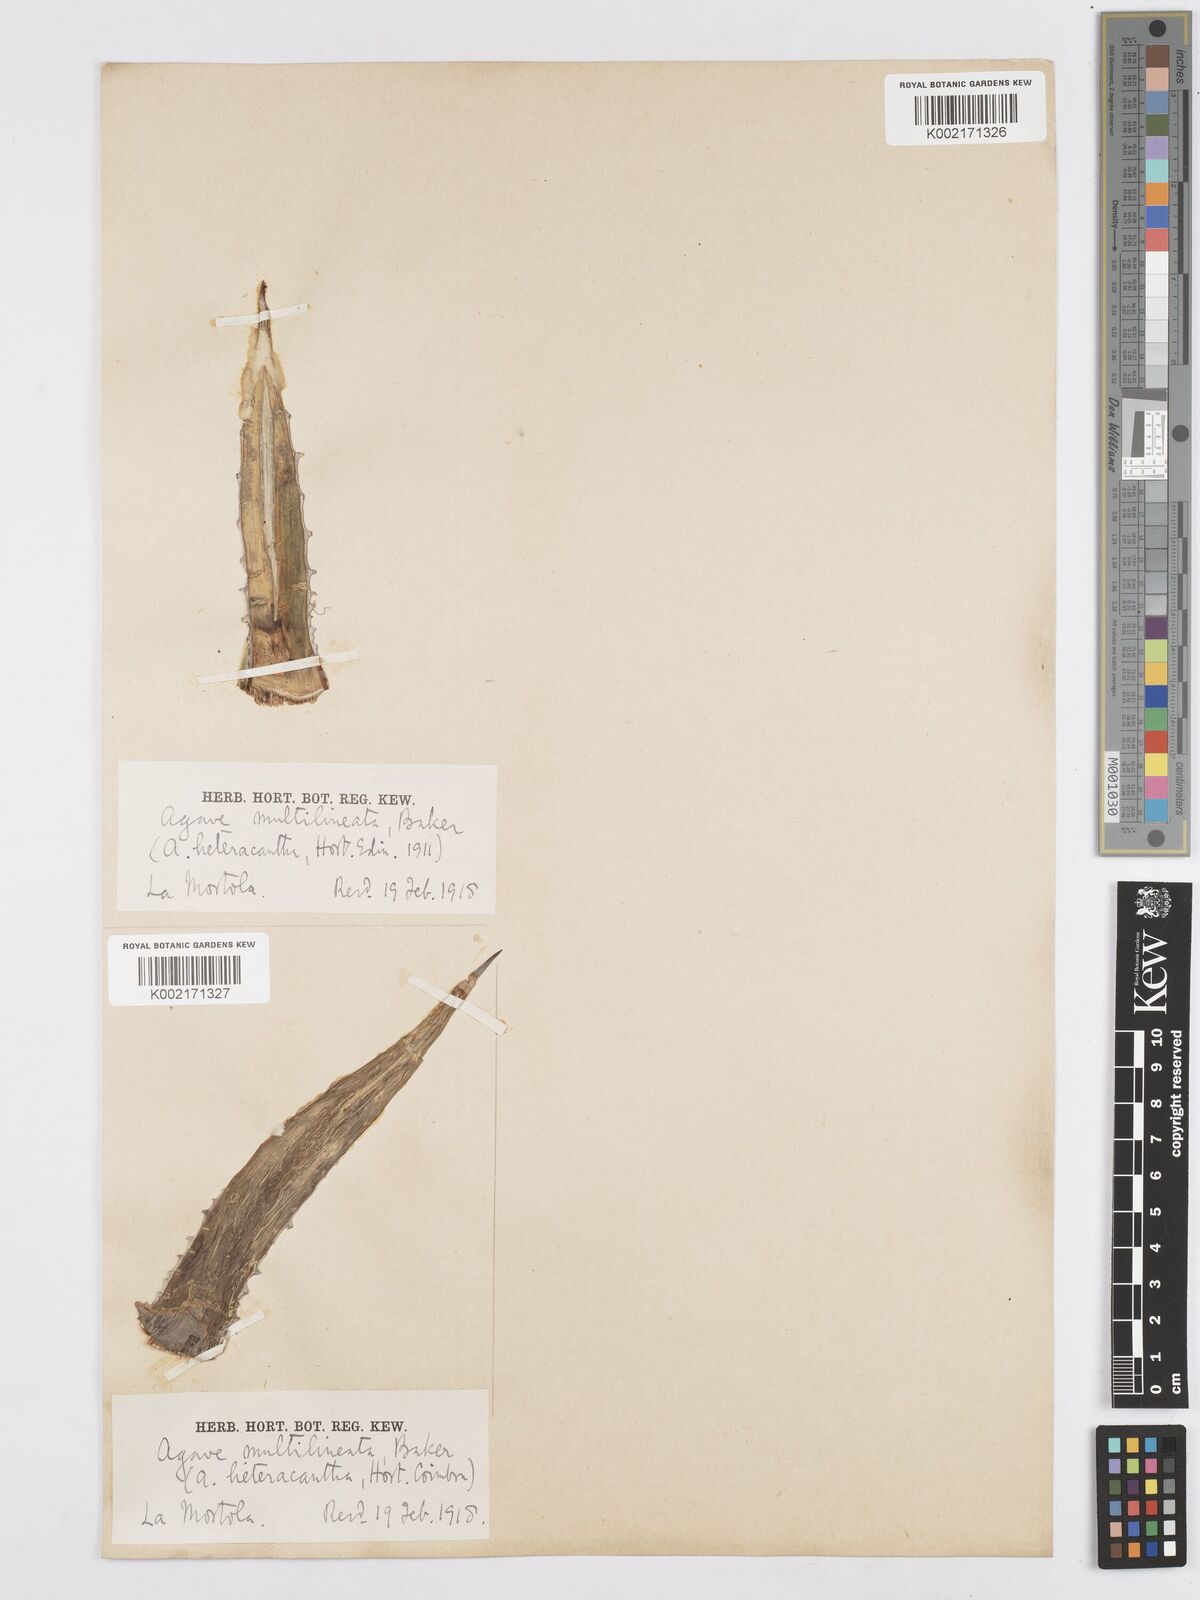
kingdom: Plantae
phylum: Tracheophyta
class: Liliopsida
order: Asparagales
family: Asparagaceae
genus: Agave
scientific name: Agave lechuguilla
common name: Lecheguilla agave
